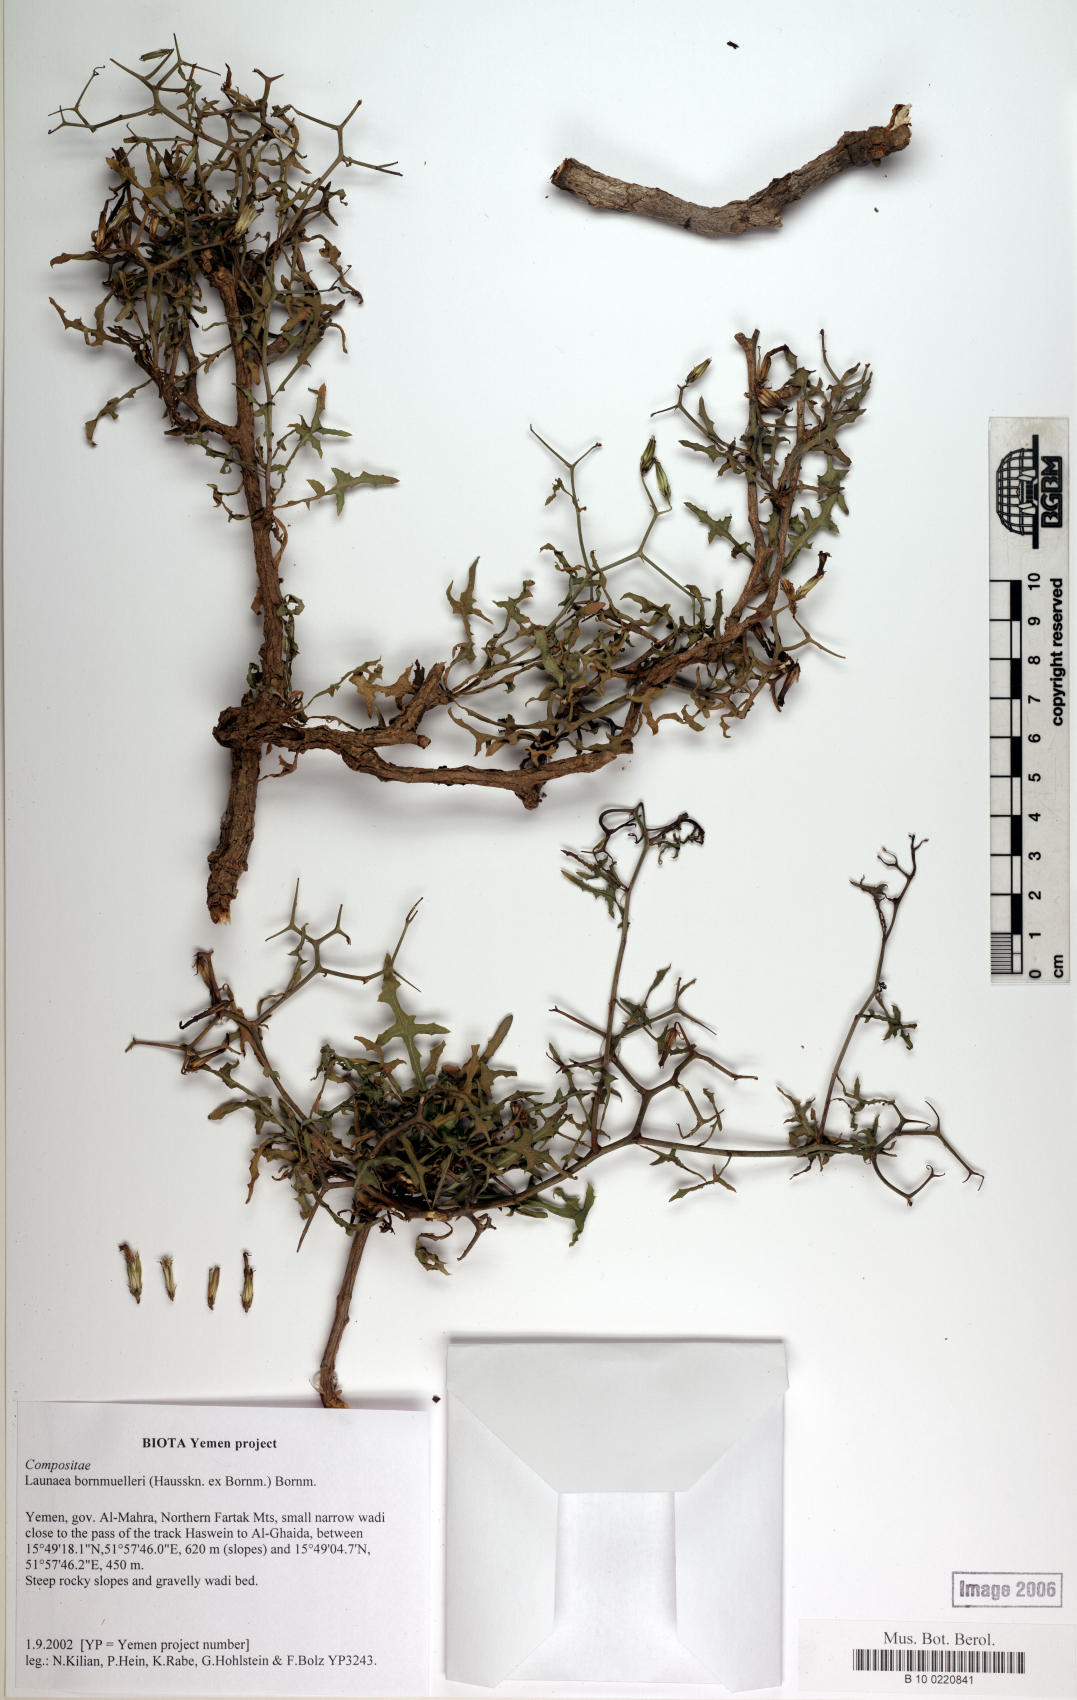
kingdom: Plantae
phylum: Tracheophyta
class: Magnoliopsida
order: Asterales
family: Asteraceae
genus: Launaea
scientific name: Launaea bornmuelleri
